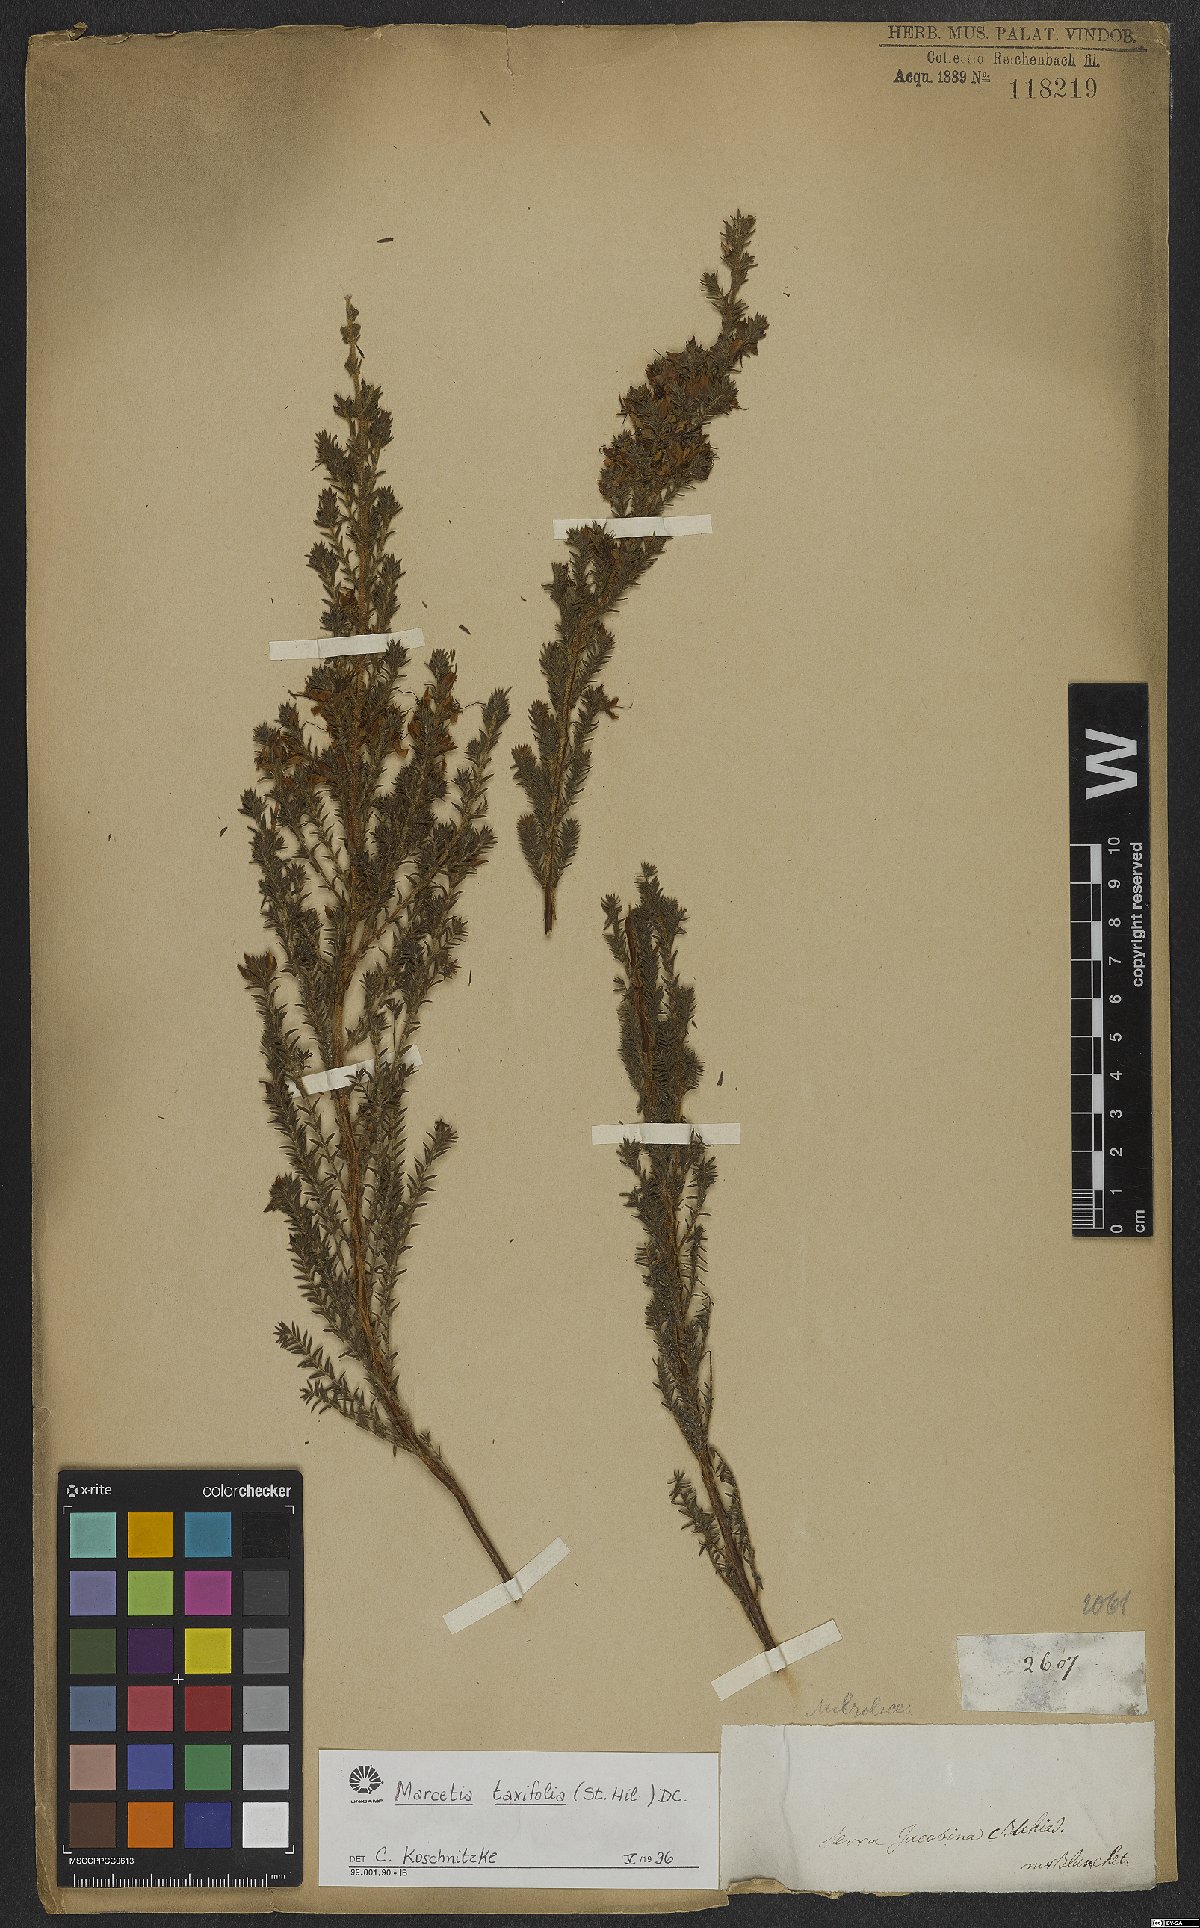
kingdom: Plantae
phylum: Tracheophyta
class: Magnoliopsida
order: Myrtales
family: Melastomataceae
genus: Marcetia
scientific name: Marcetia taxifolia
